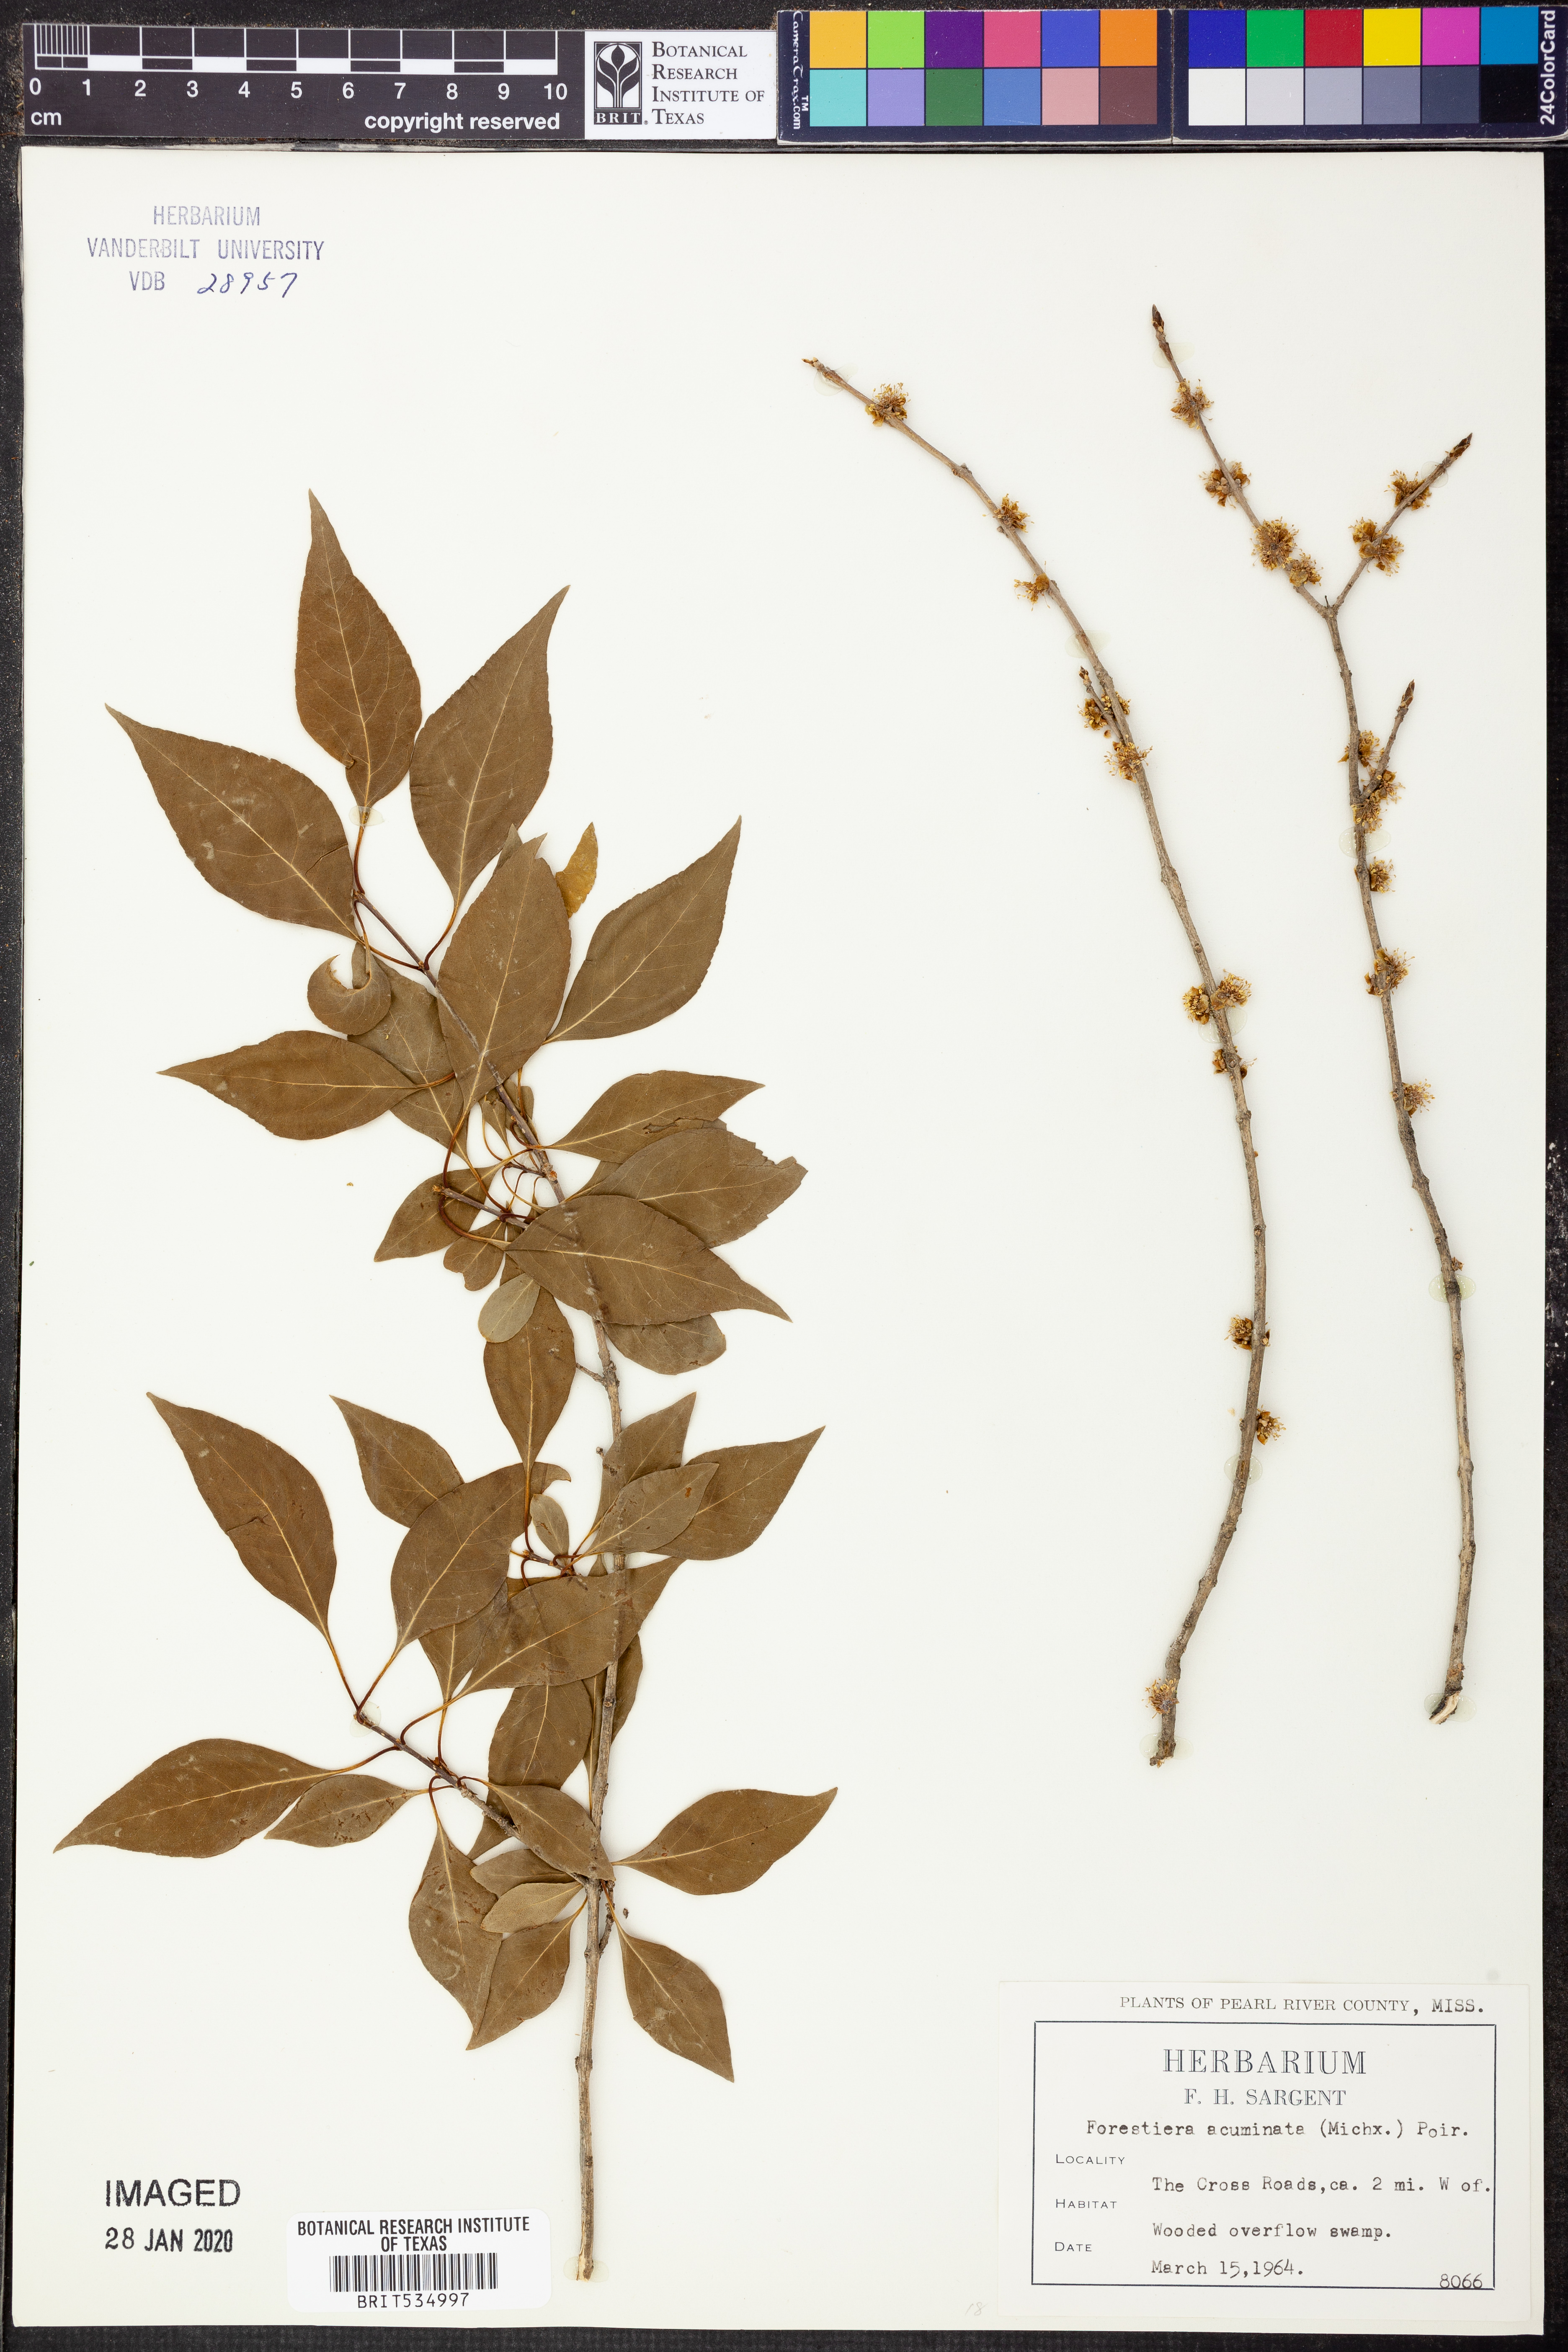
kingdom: Plantae
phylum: Tracheophyta
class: Magnoliopsida
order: Lamiales
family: Oleaceae
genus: Forestiera
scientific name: Forestiera acuminata
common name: Swamp-privet
